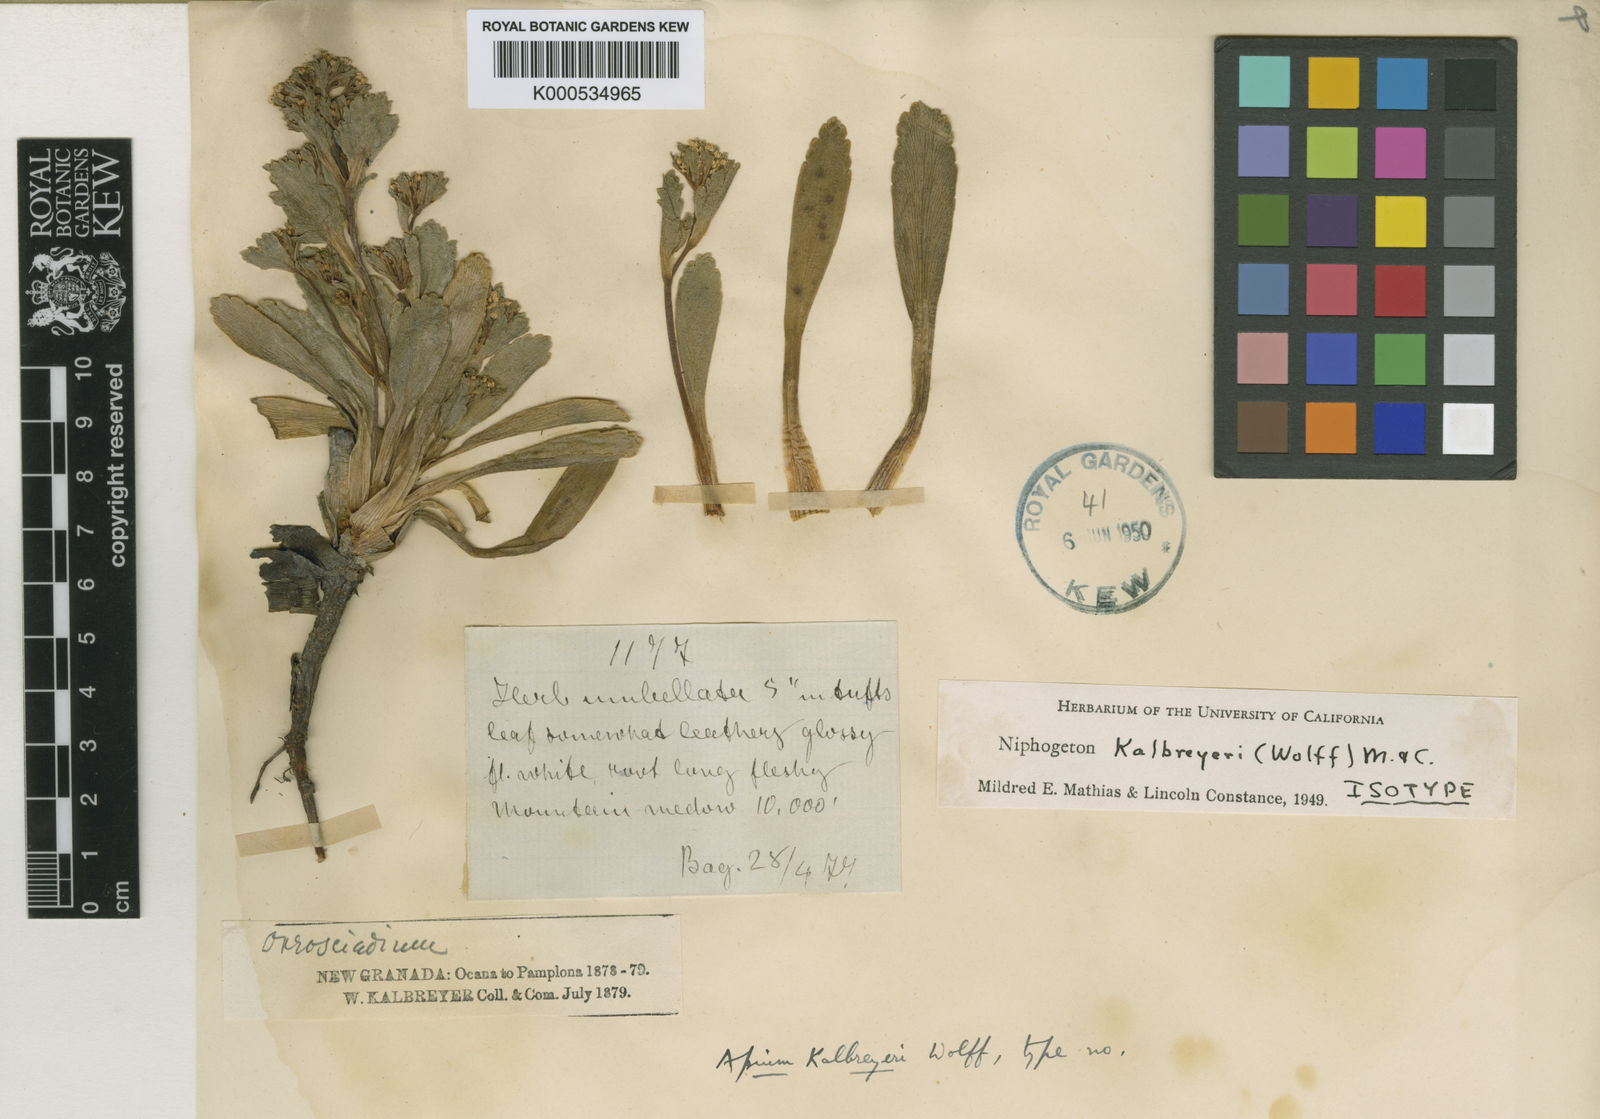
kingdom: Plantae
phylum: Tracheophyta
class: Magnoliopsida
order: Apiales
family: Apiaceae
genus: Niphogeton
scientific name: Niphogeton kalbreyeri
